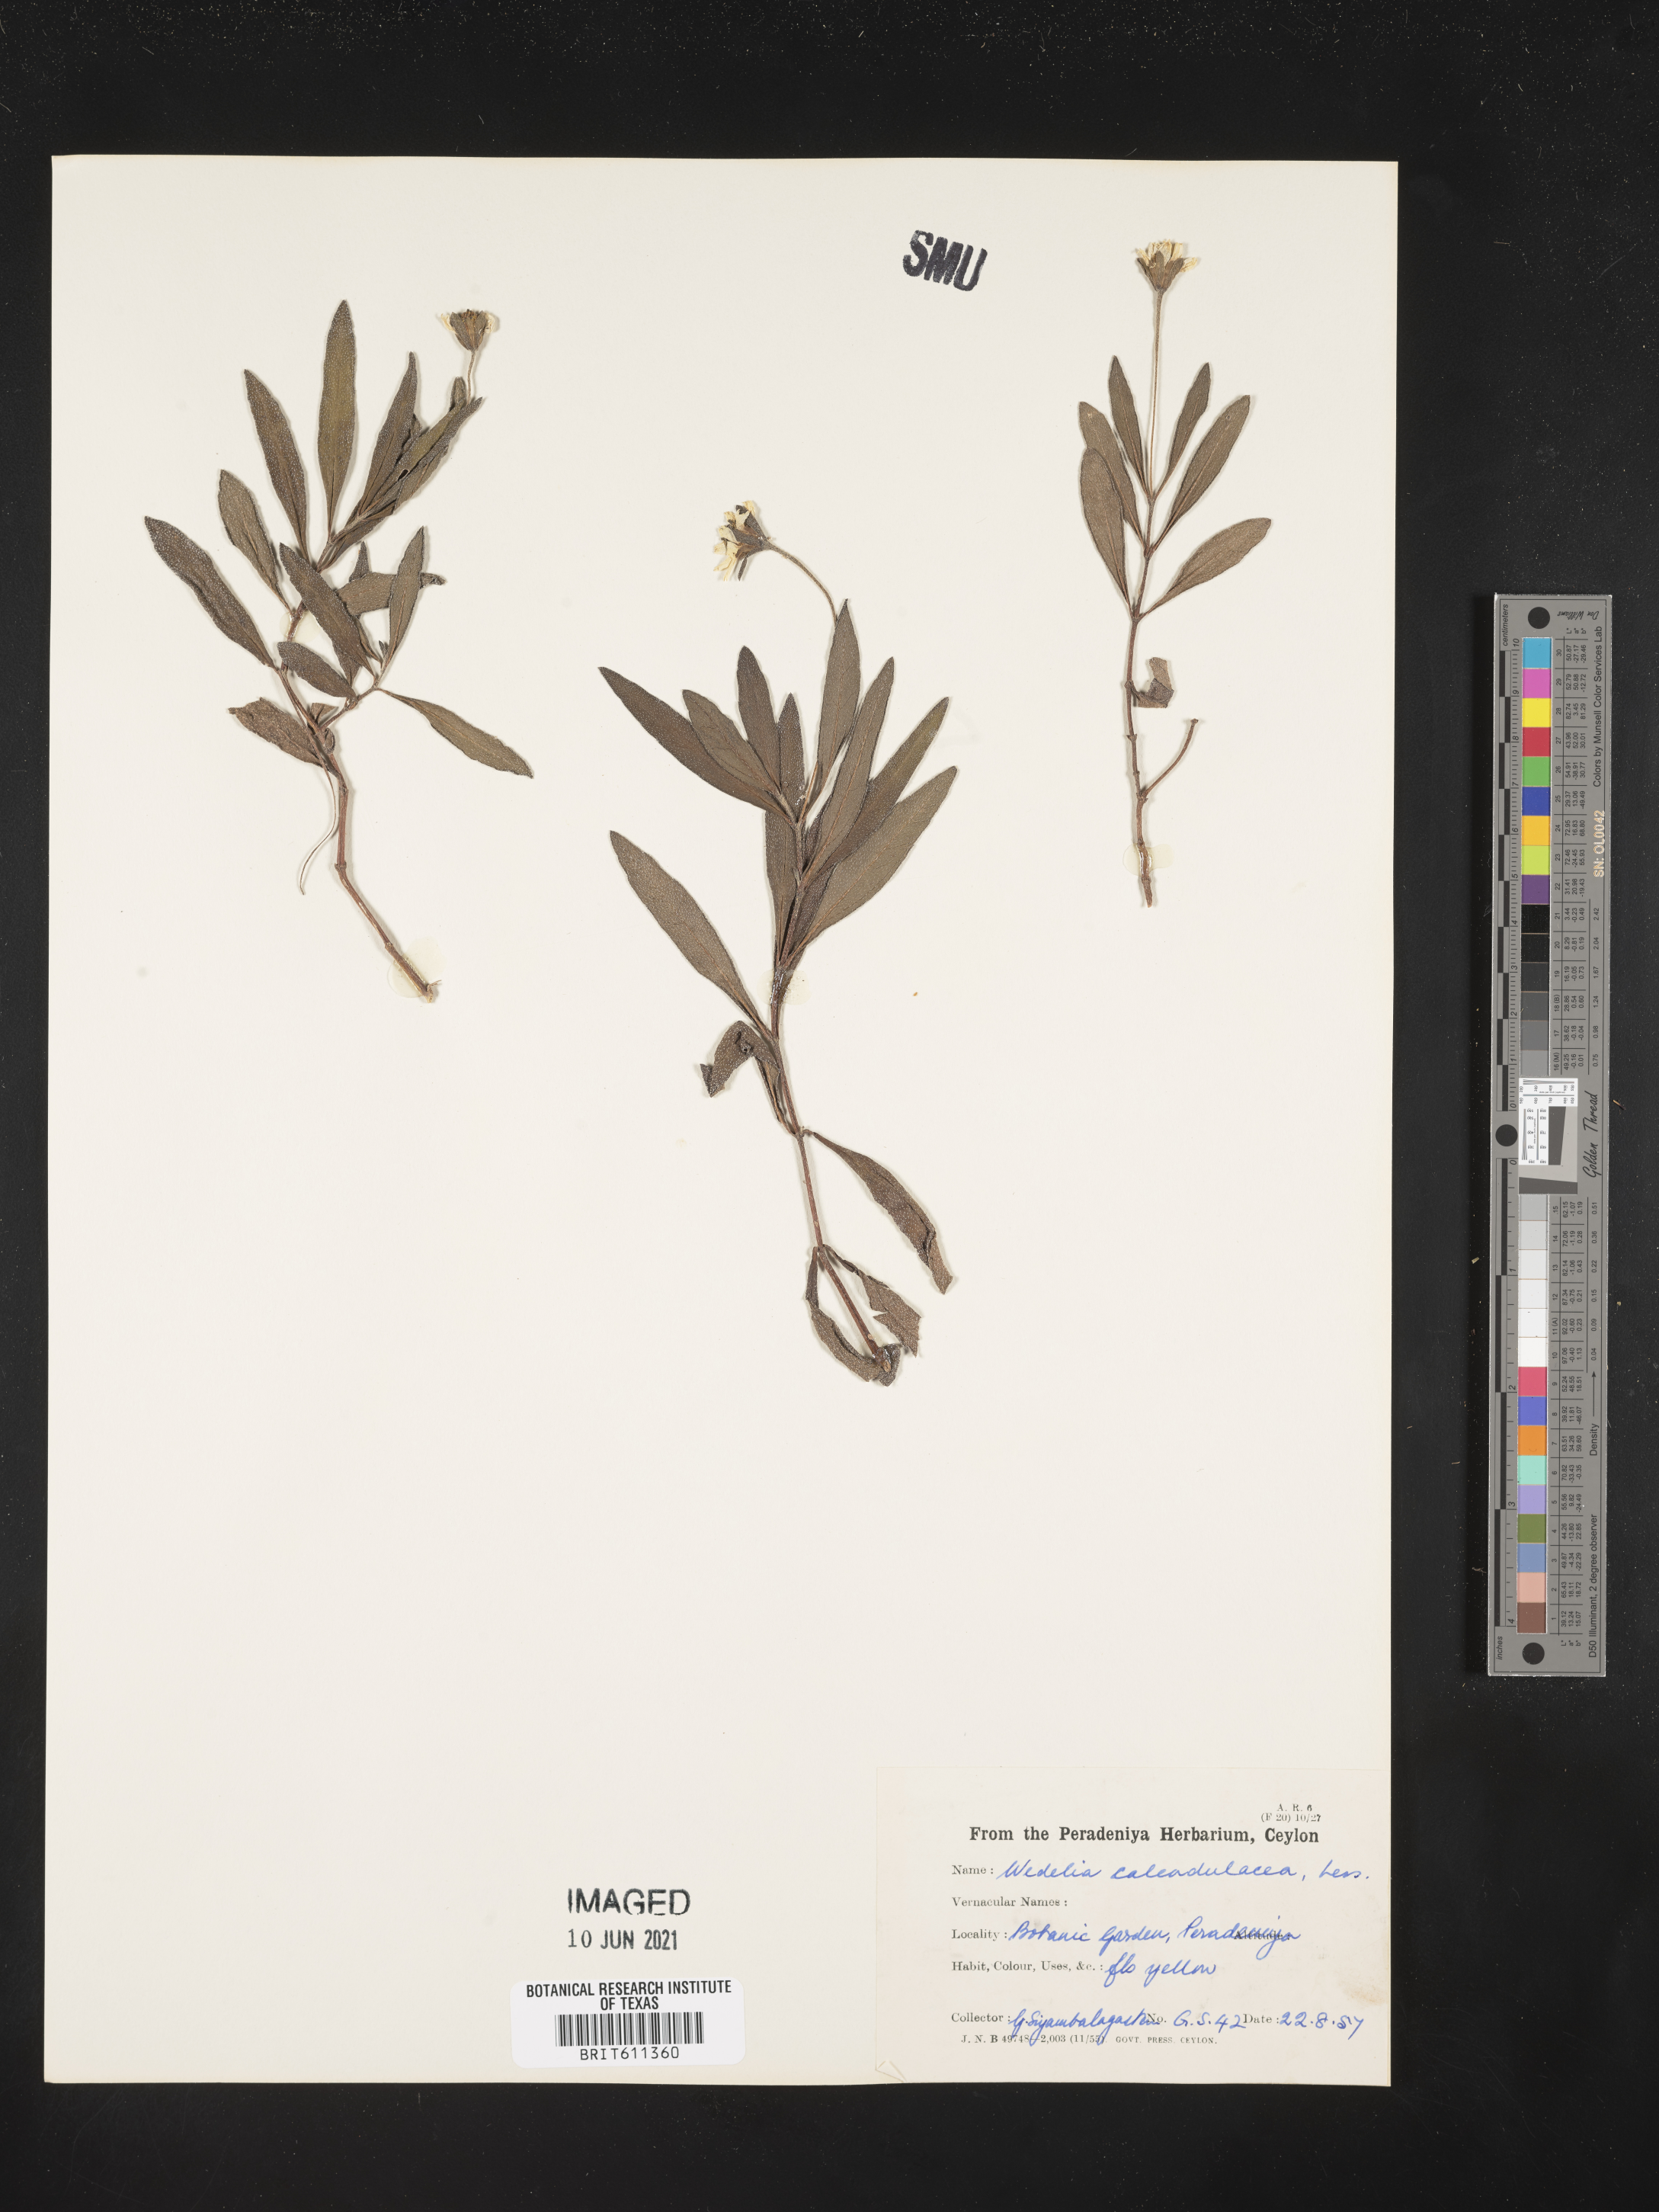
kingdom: Plantae
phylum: Tracheophyta
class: Magnoliopsida
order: Asterales
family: Asteraceae
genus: Sphagneticola
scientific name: Sphagneticola calendulacea
